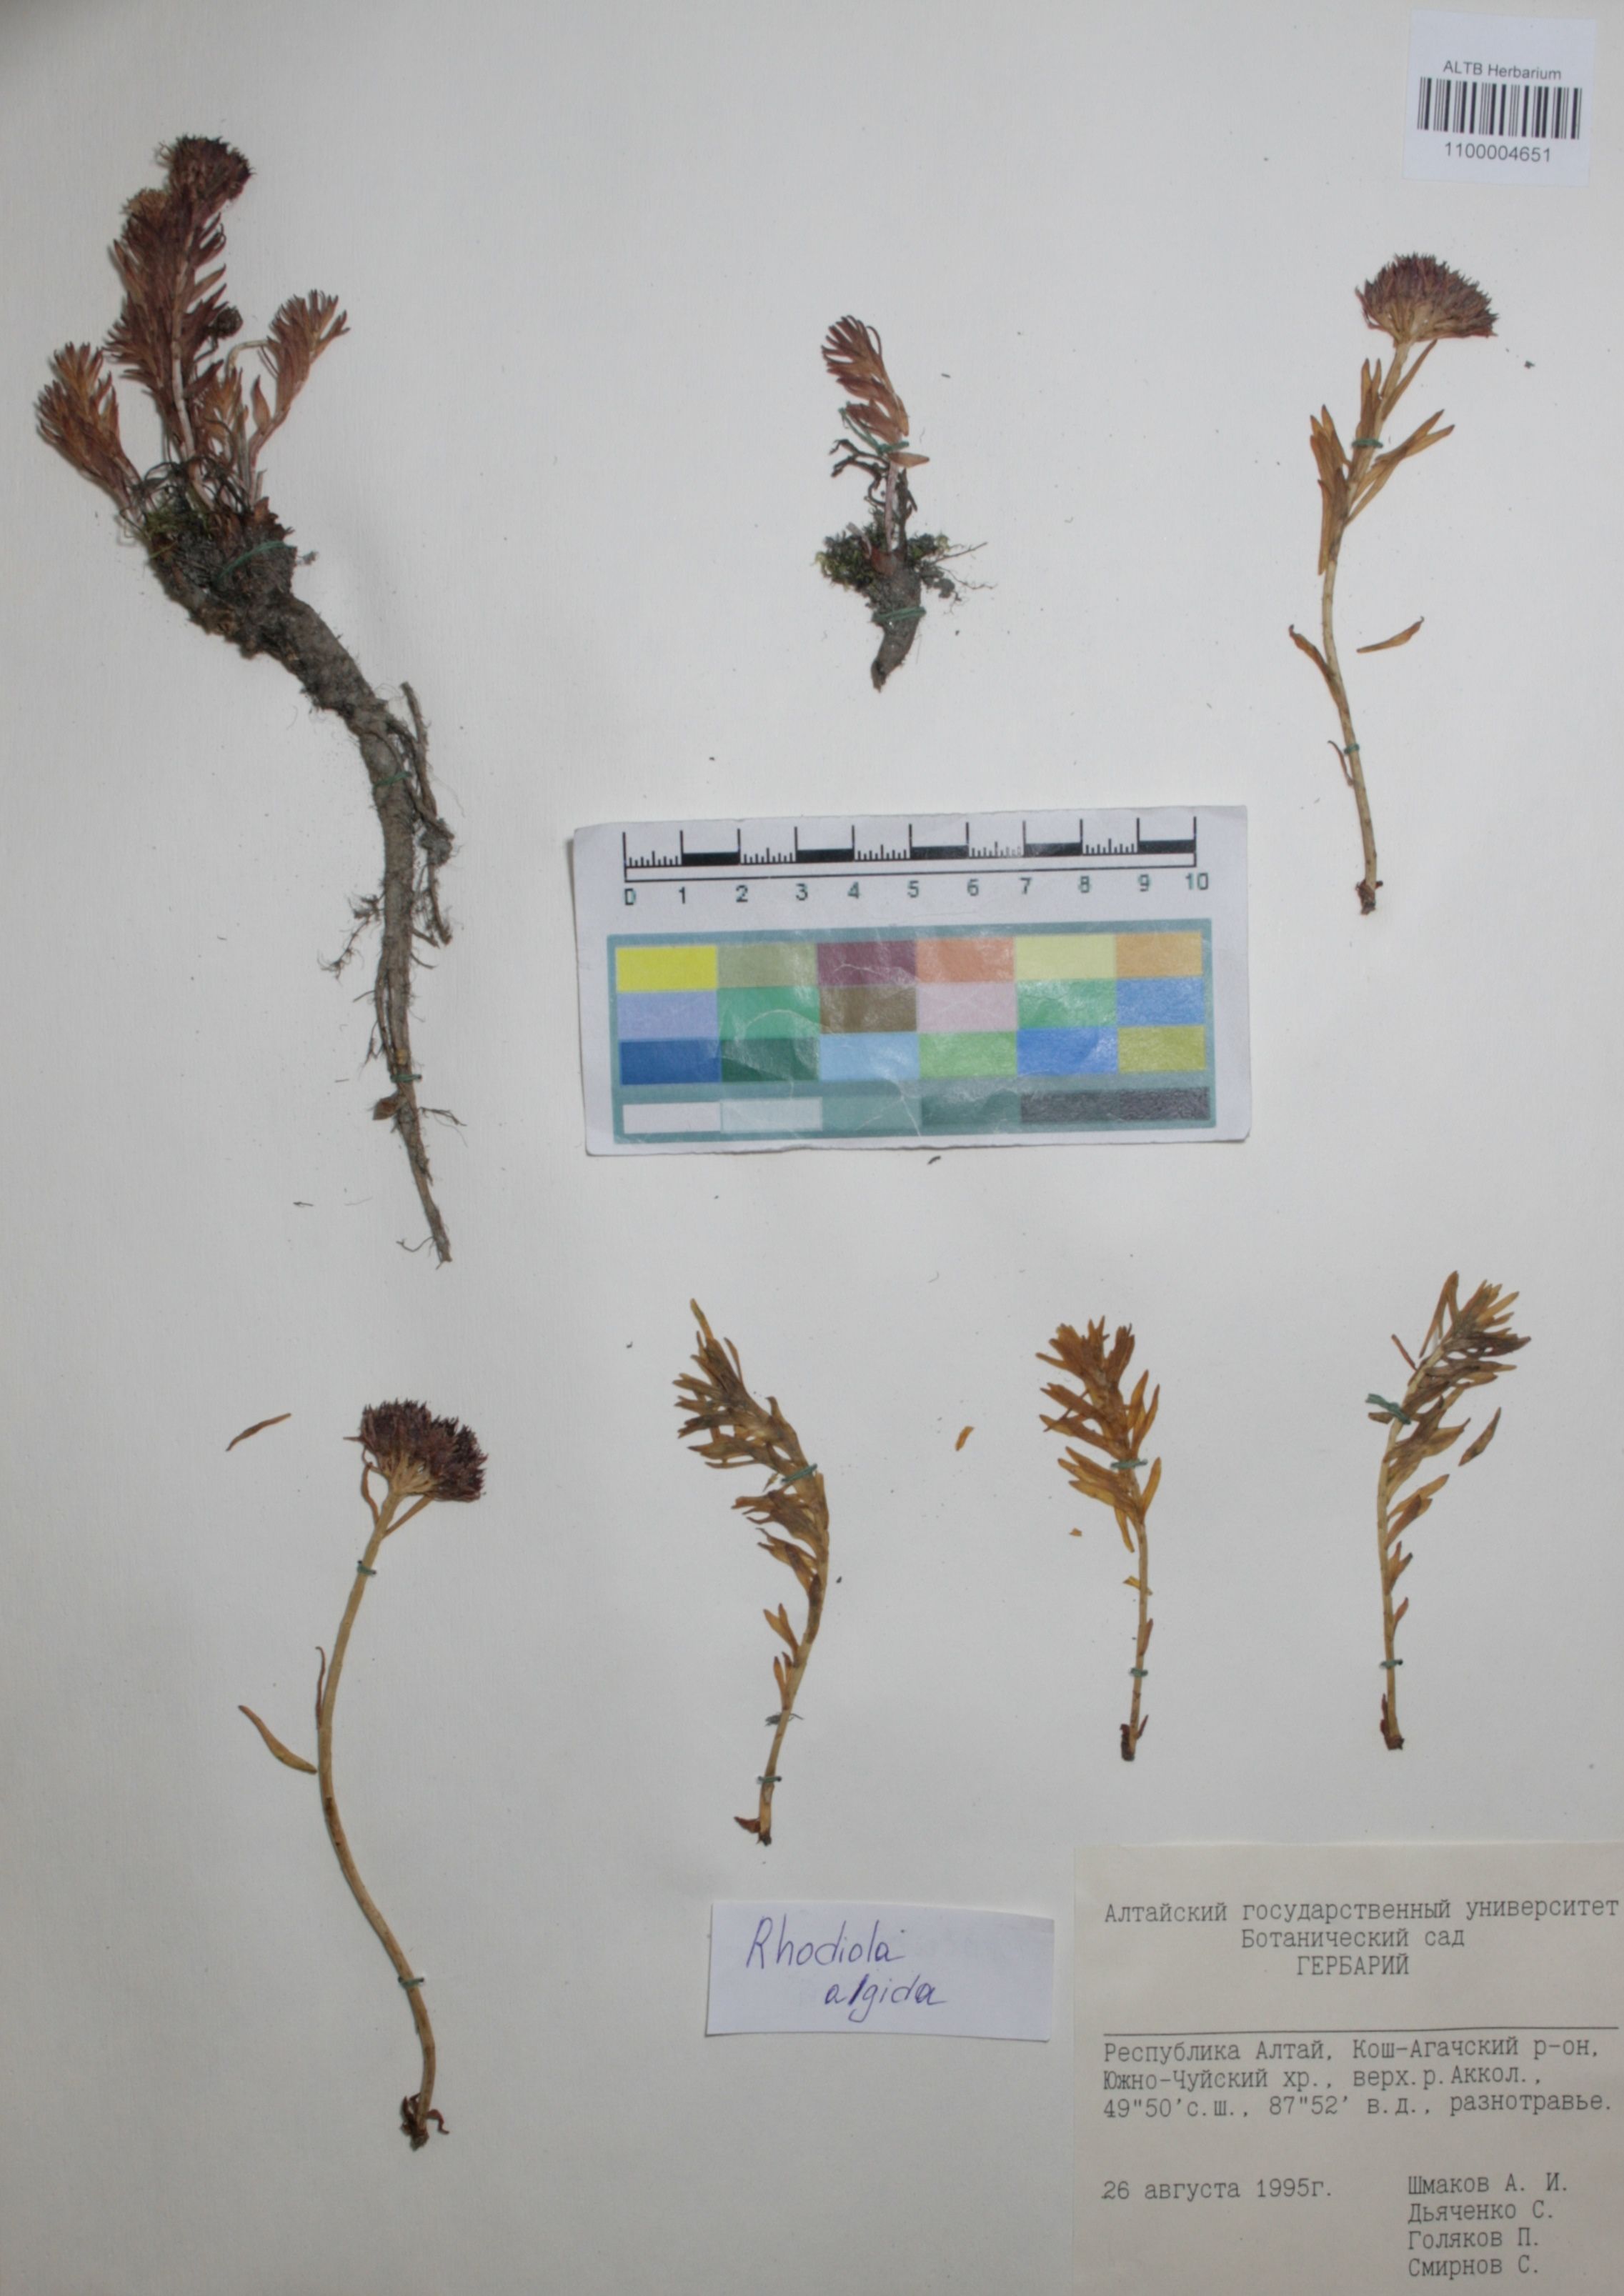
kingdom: Plantae
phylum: Tracheophyta
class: Magnoliopsida
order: Saxifragales
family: Crassulaceae
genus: Rhodiola
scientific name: Rhodiola algida
